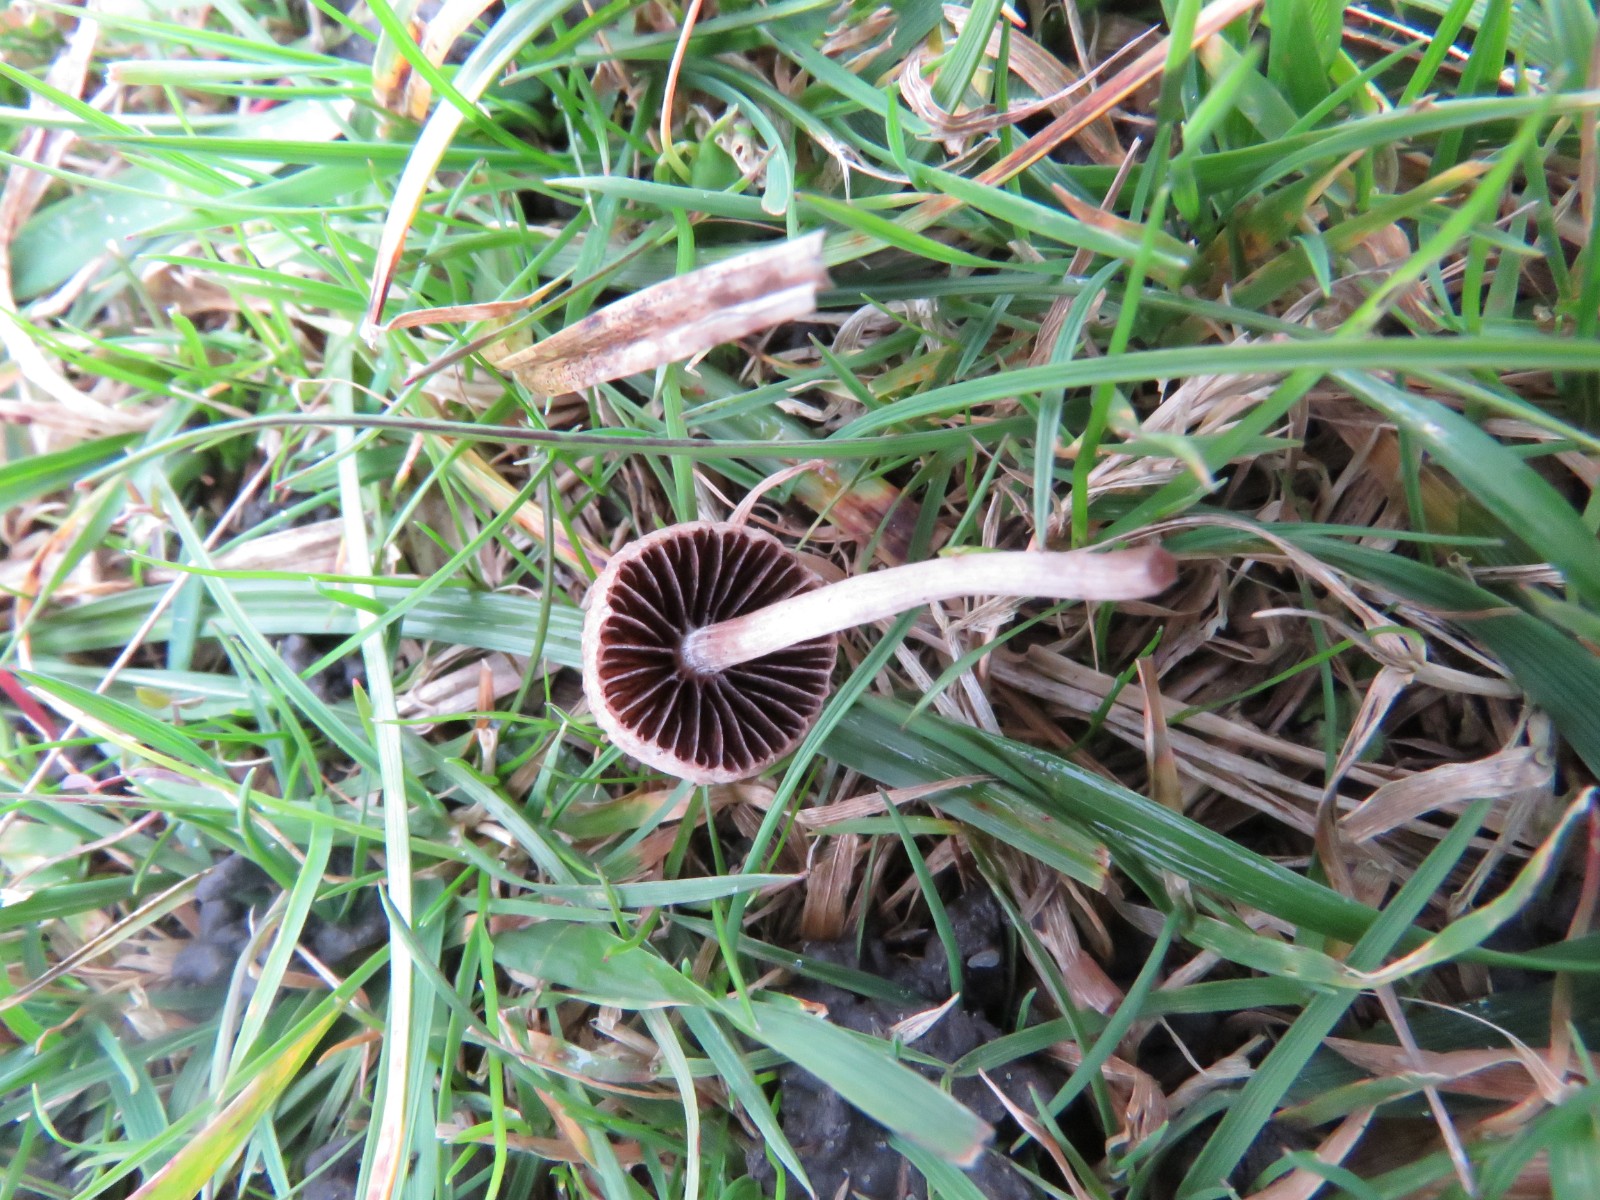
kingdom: Fungi
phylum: Basidiomycota
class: Agaricomycetes
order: Agaricales
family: Bolbitiaceae
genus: Panaeolina
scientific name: Panaeolina foenisecii
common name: høslætsvamp
